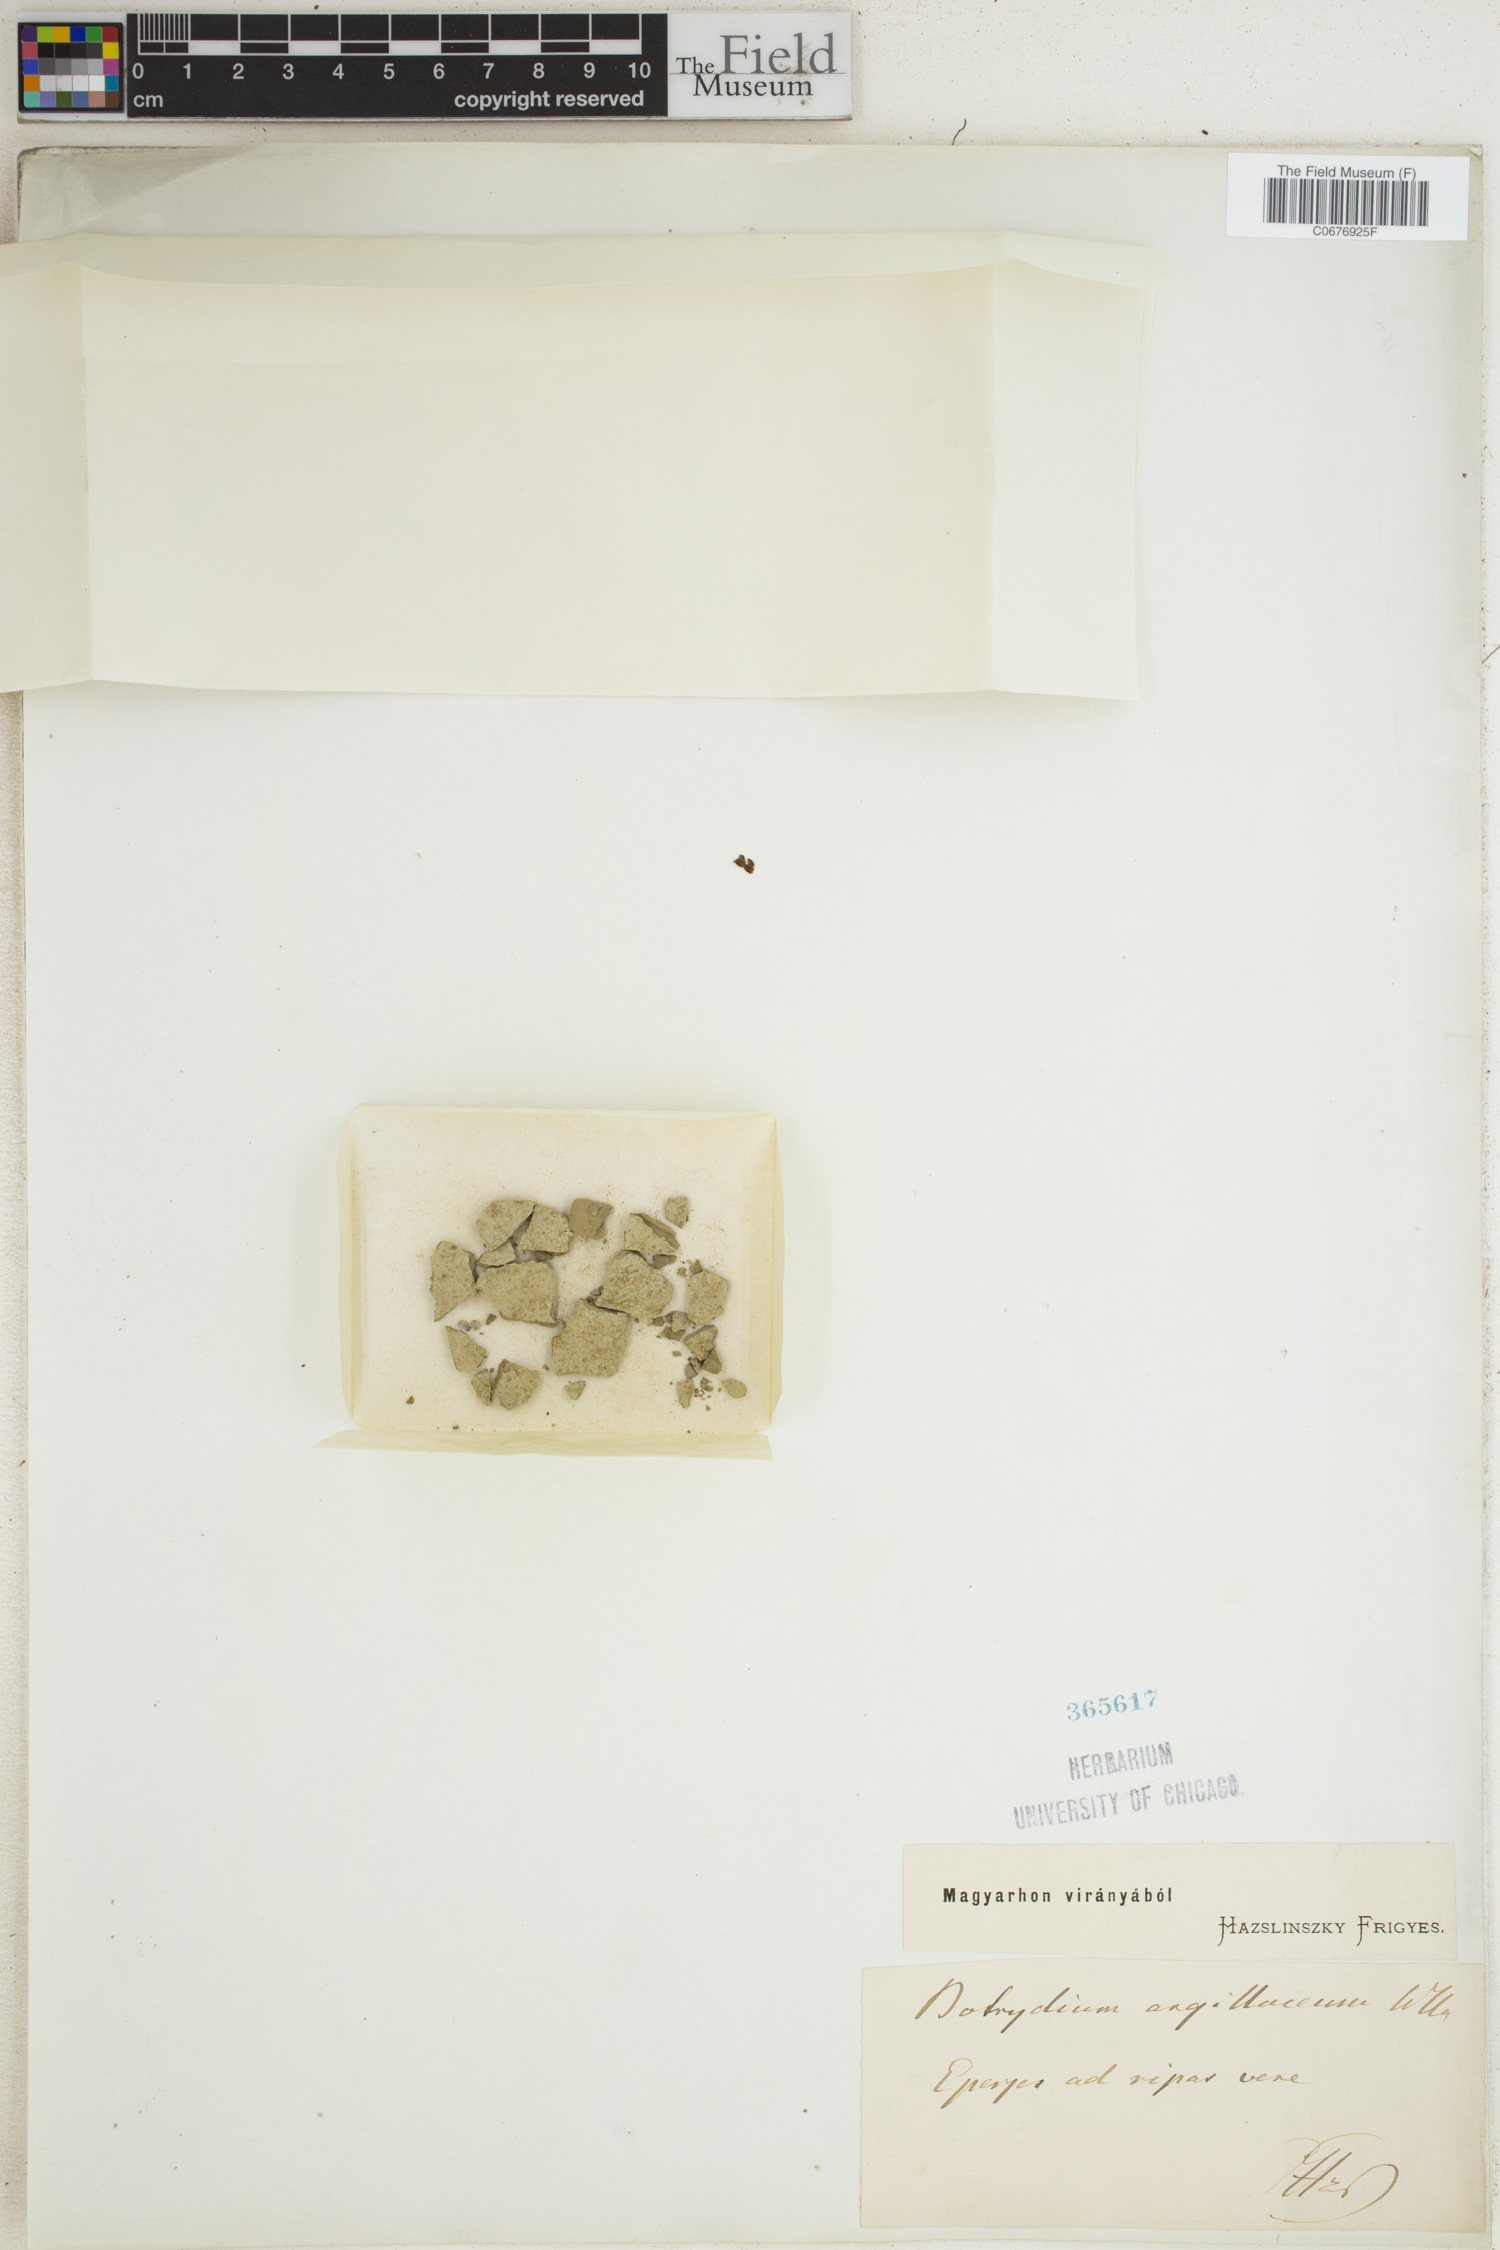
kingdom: Plantae
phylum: Tracheophyta
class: Polypodiopsida
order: Ophioglossales
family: Ophioglossaceae
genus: Botrychium
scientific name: Botrychium
